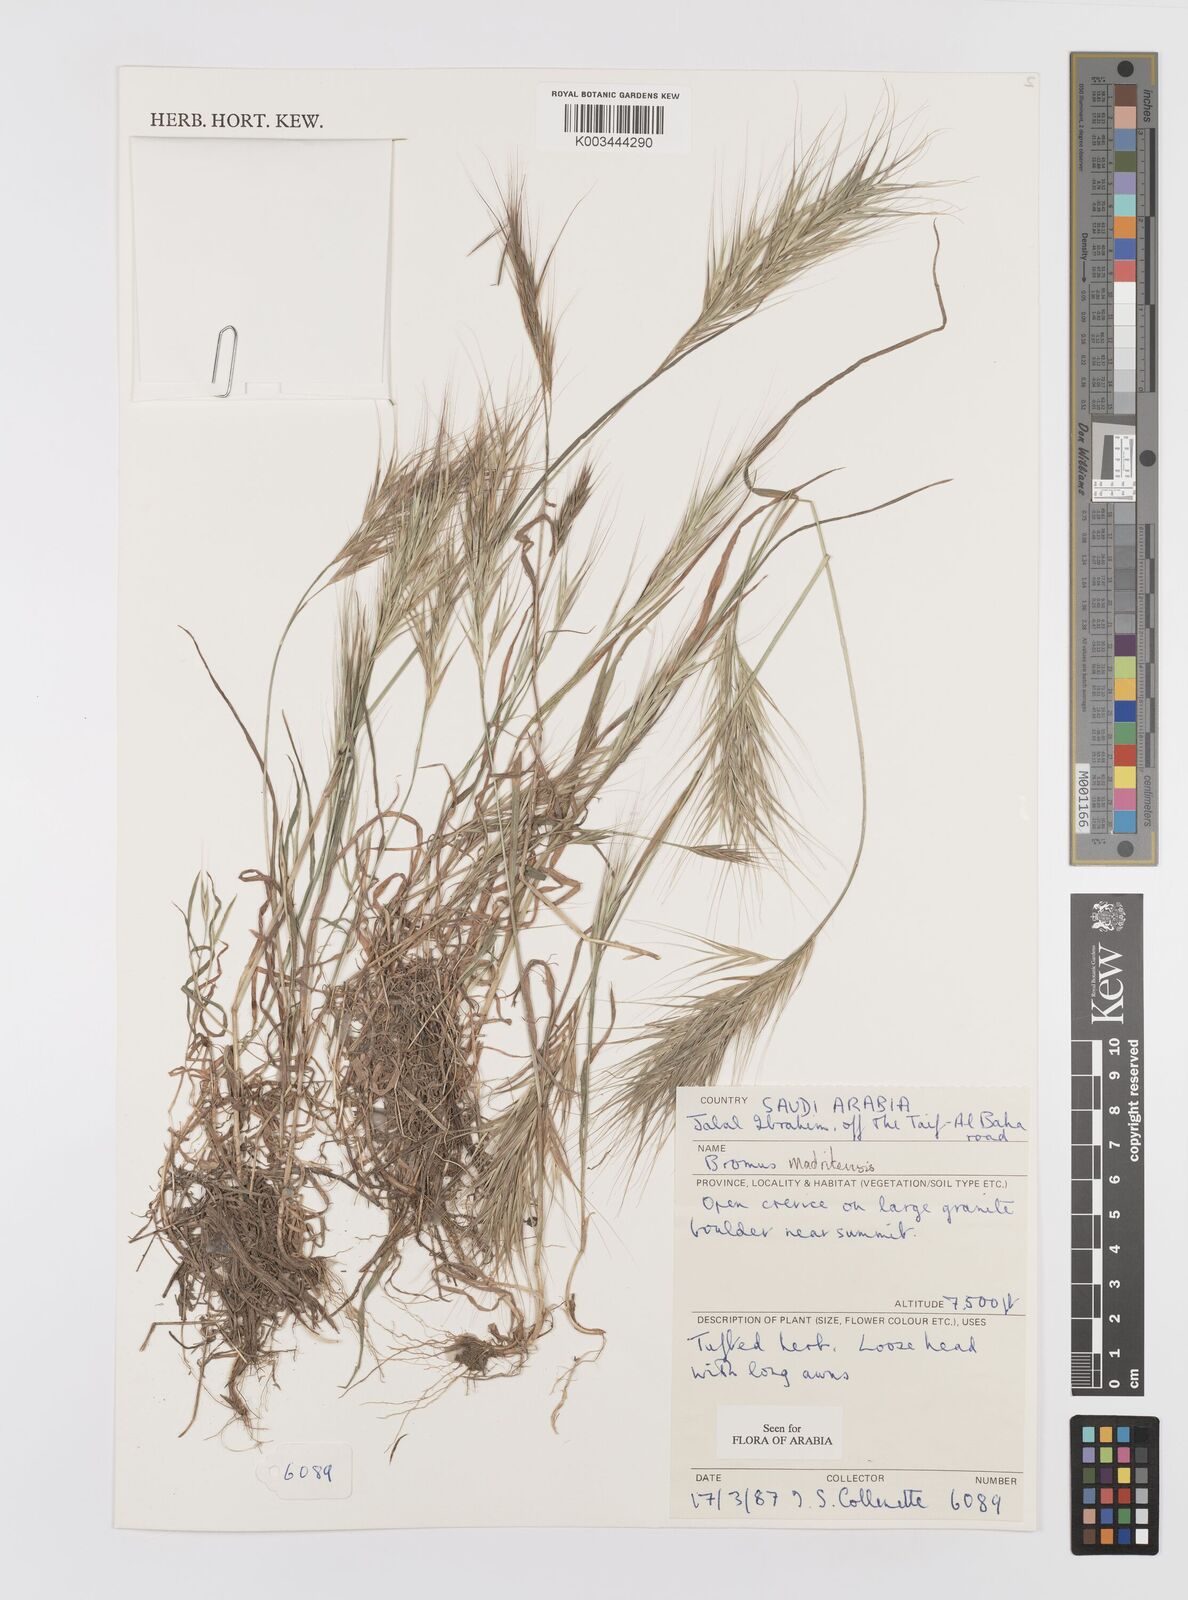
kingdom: Plantae
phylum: Tracheophyta
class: Liliopsida
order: Poales
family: Poaceae
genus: Bromus
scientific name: Bromus madritensis
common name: Compact brome
